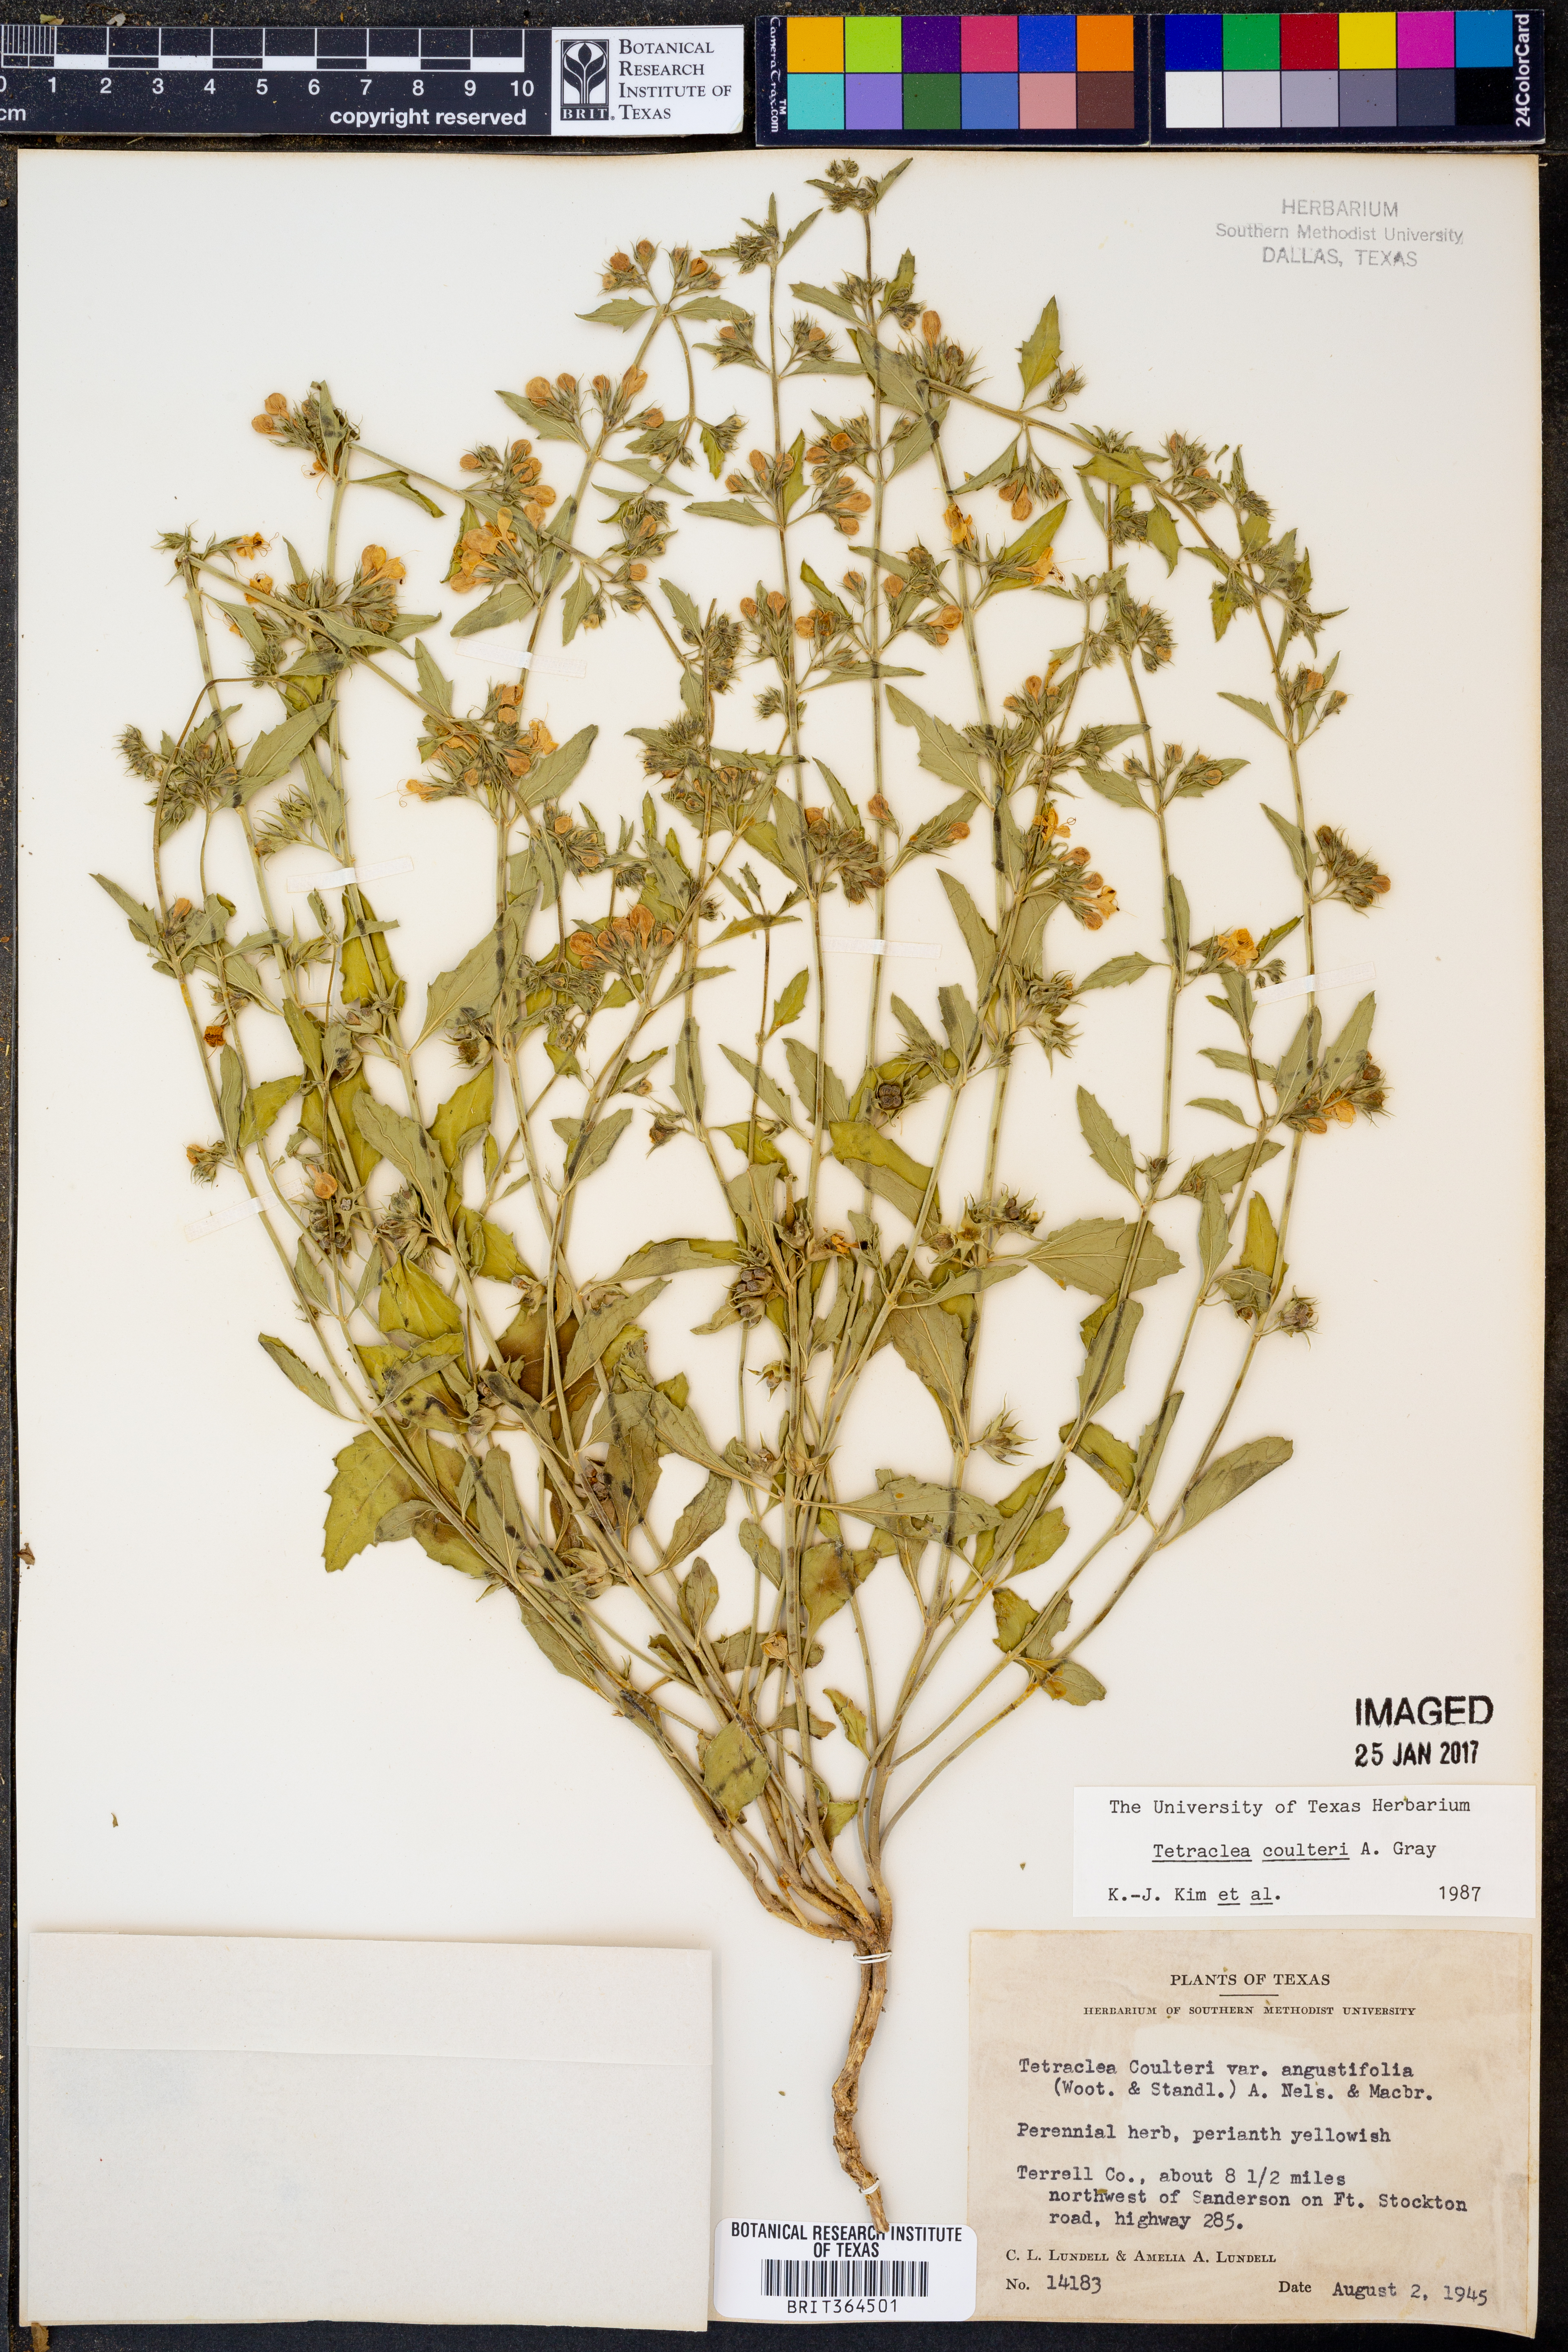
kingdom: Plantae
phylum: Tracheophyta
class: Magnoliopsida
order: Lamiales
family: Lamiaceae
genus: Tetraclea
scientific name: Tetraclea coulteri
